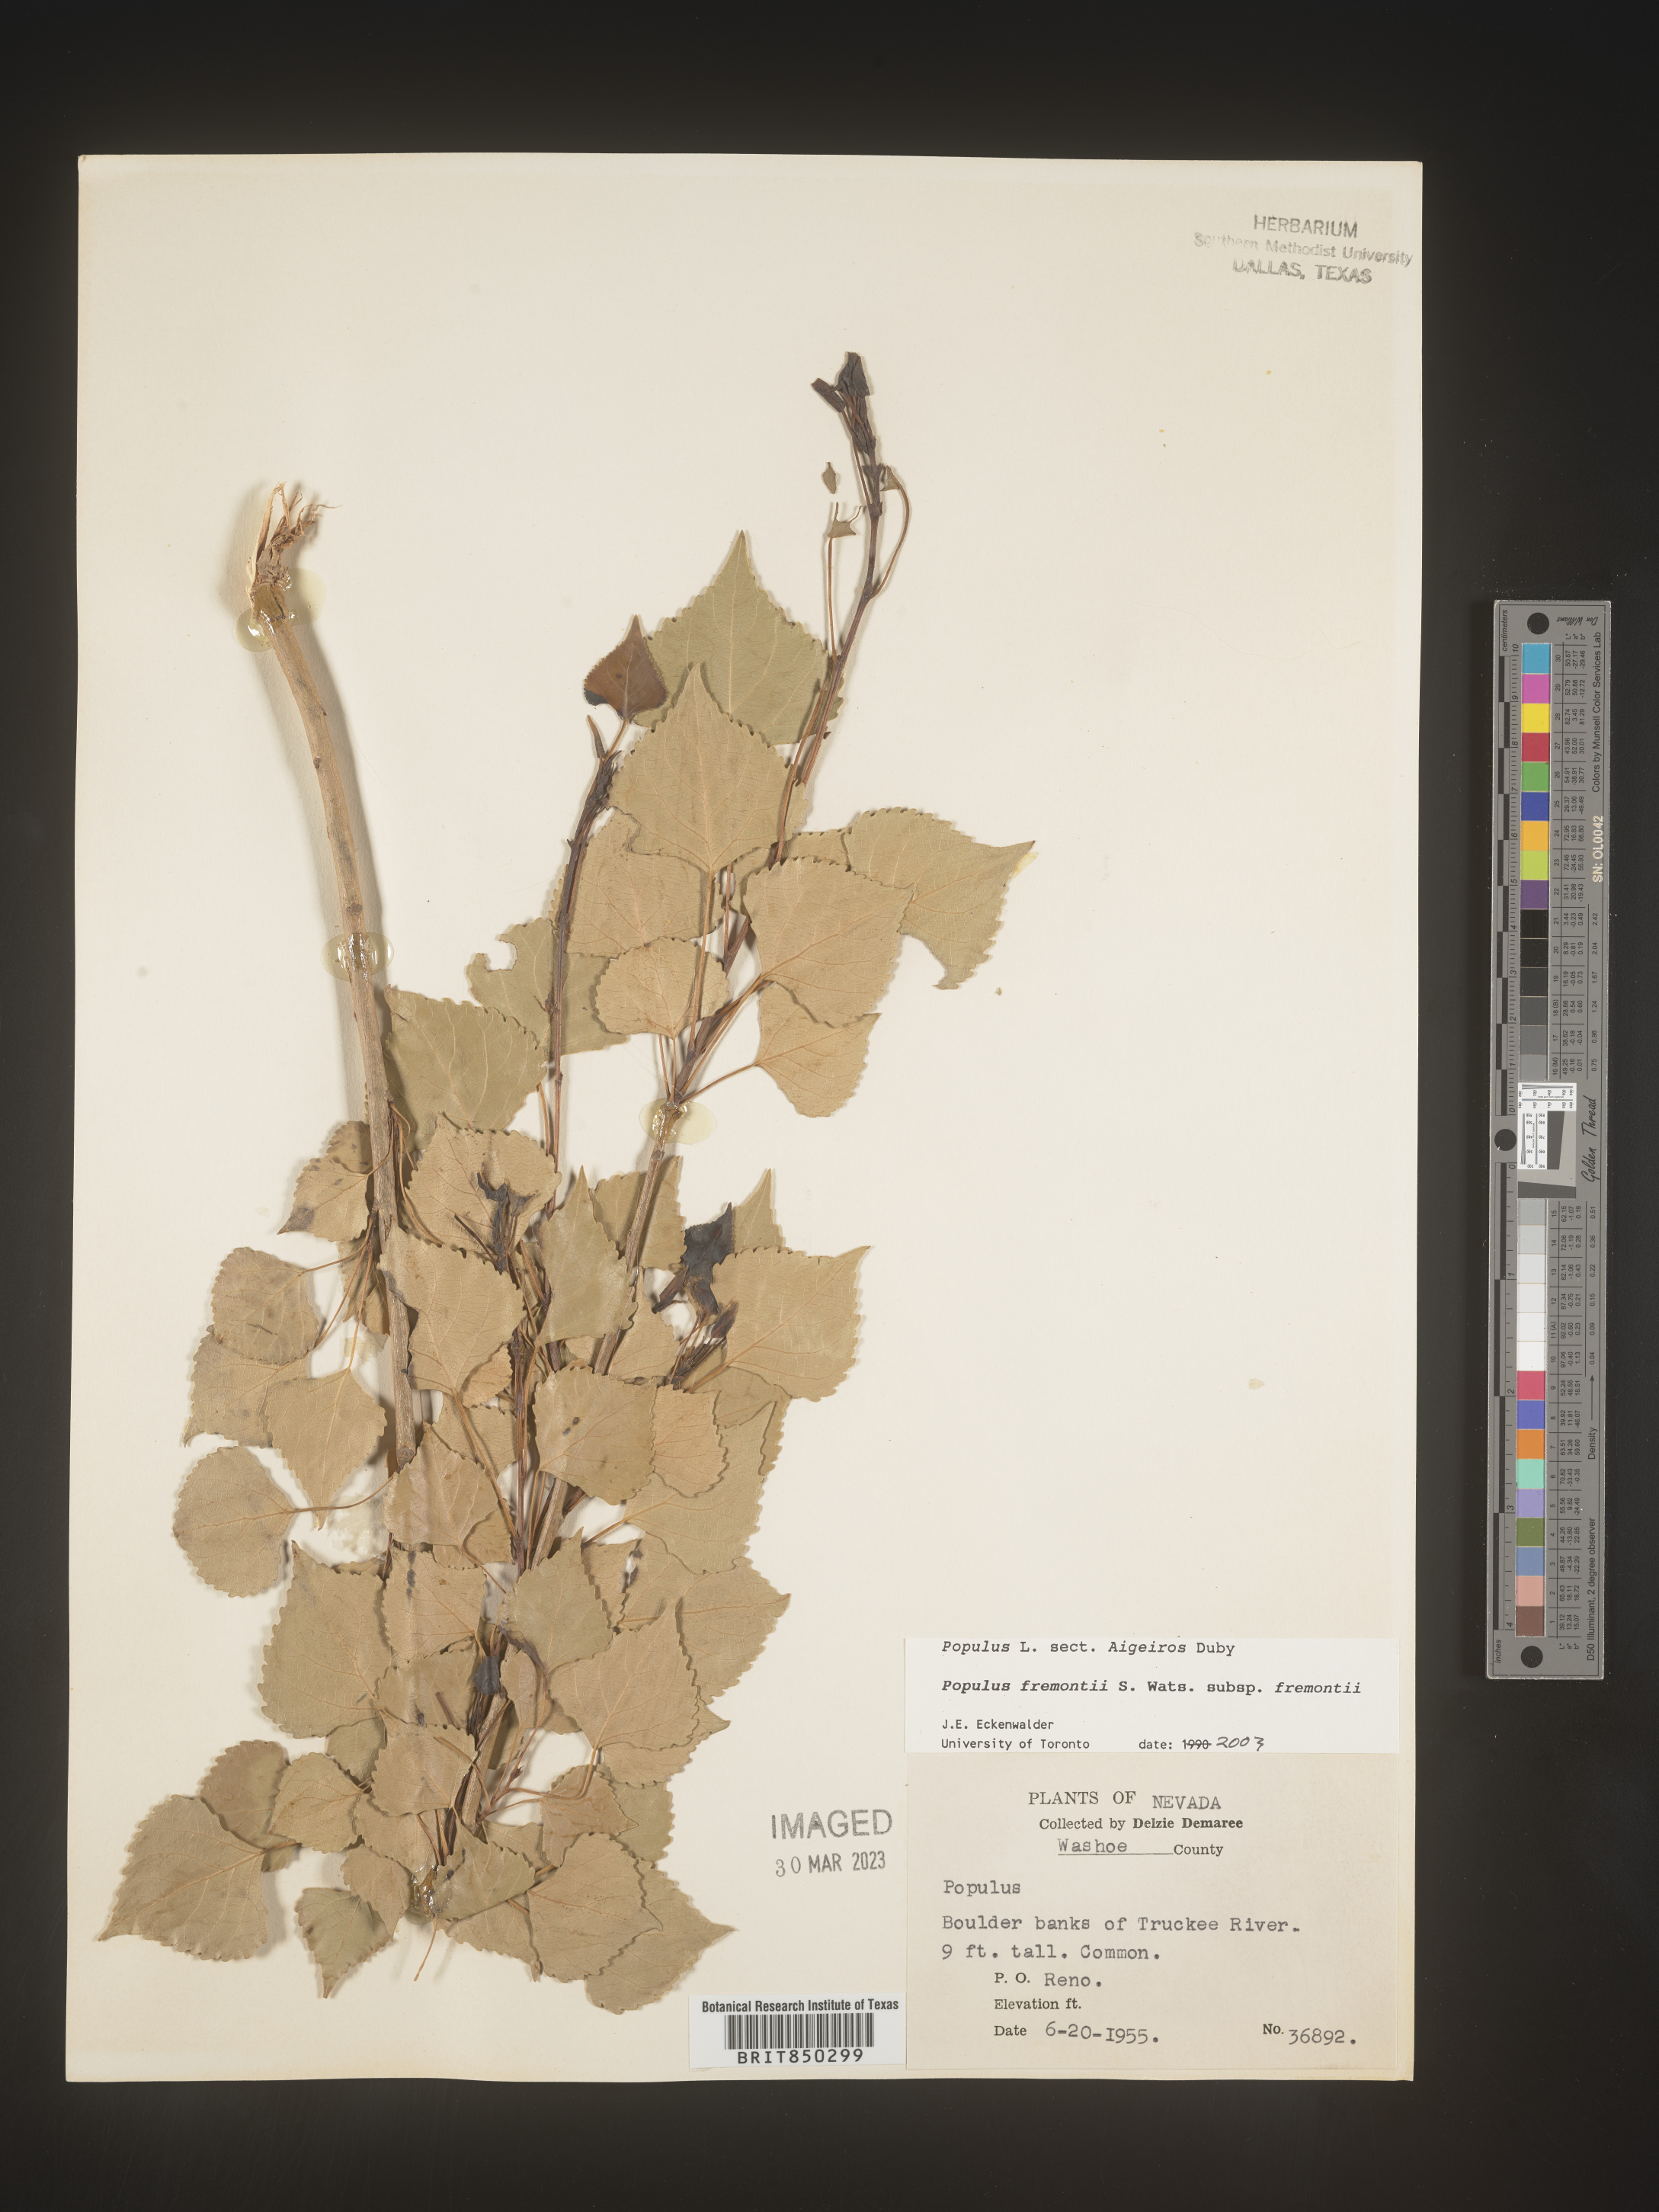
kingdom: Plantae
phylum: Tracheophyta
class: Magnoliopsida
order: Malpighiales
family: Salicaceae
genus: Populus
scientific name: Populus fremontii
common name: Fremont's cottonwood
